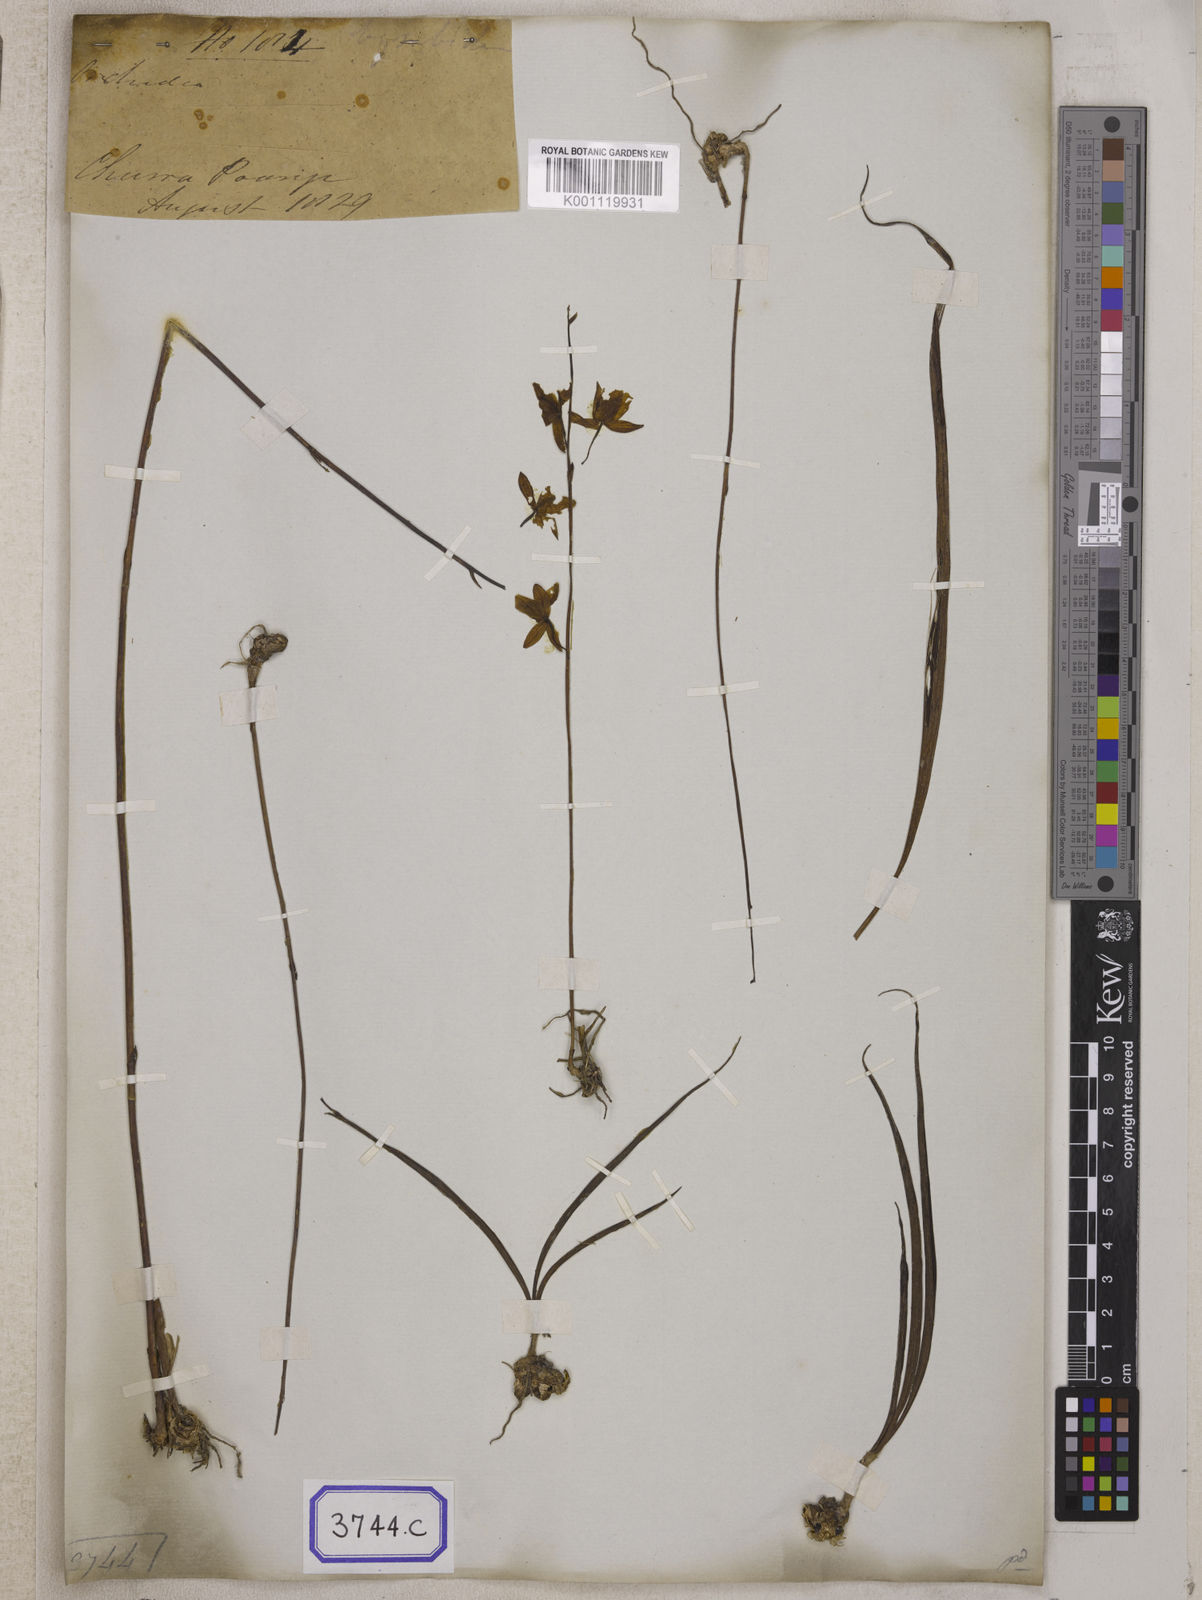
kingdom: Plantae
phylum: Tracheophyta
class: Liliopsida
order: Asparagales
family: Orchidaceae
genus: Spathoglottis
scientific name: Spathoglottis pubescens
